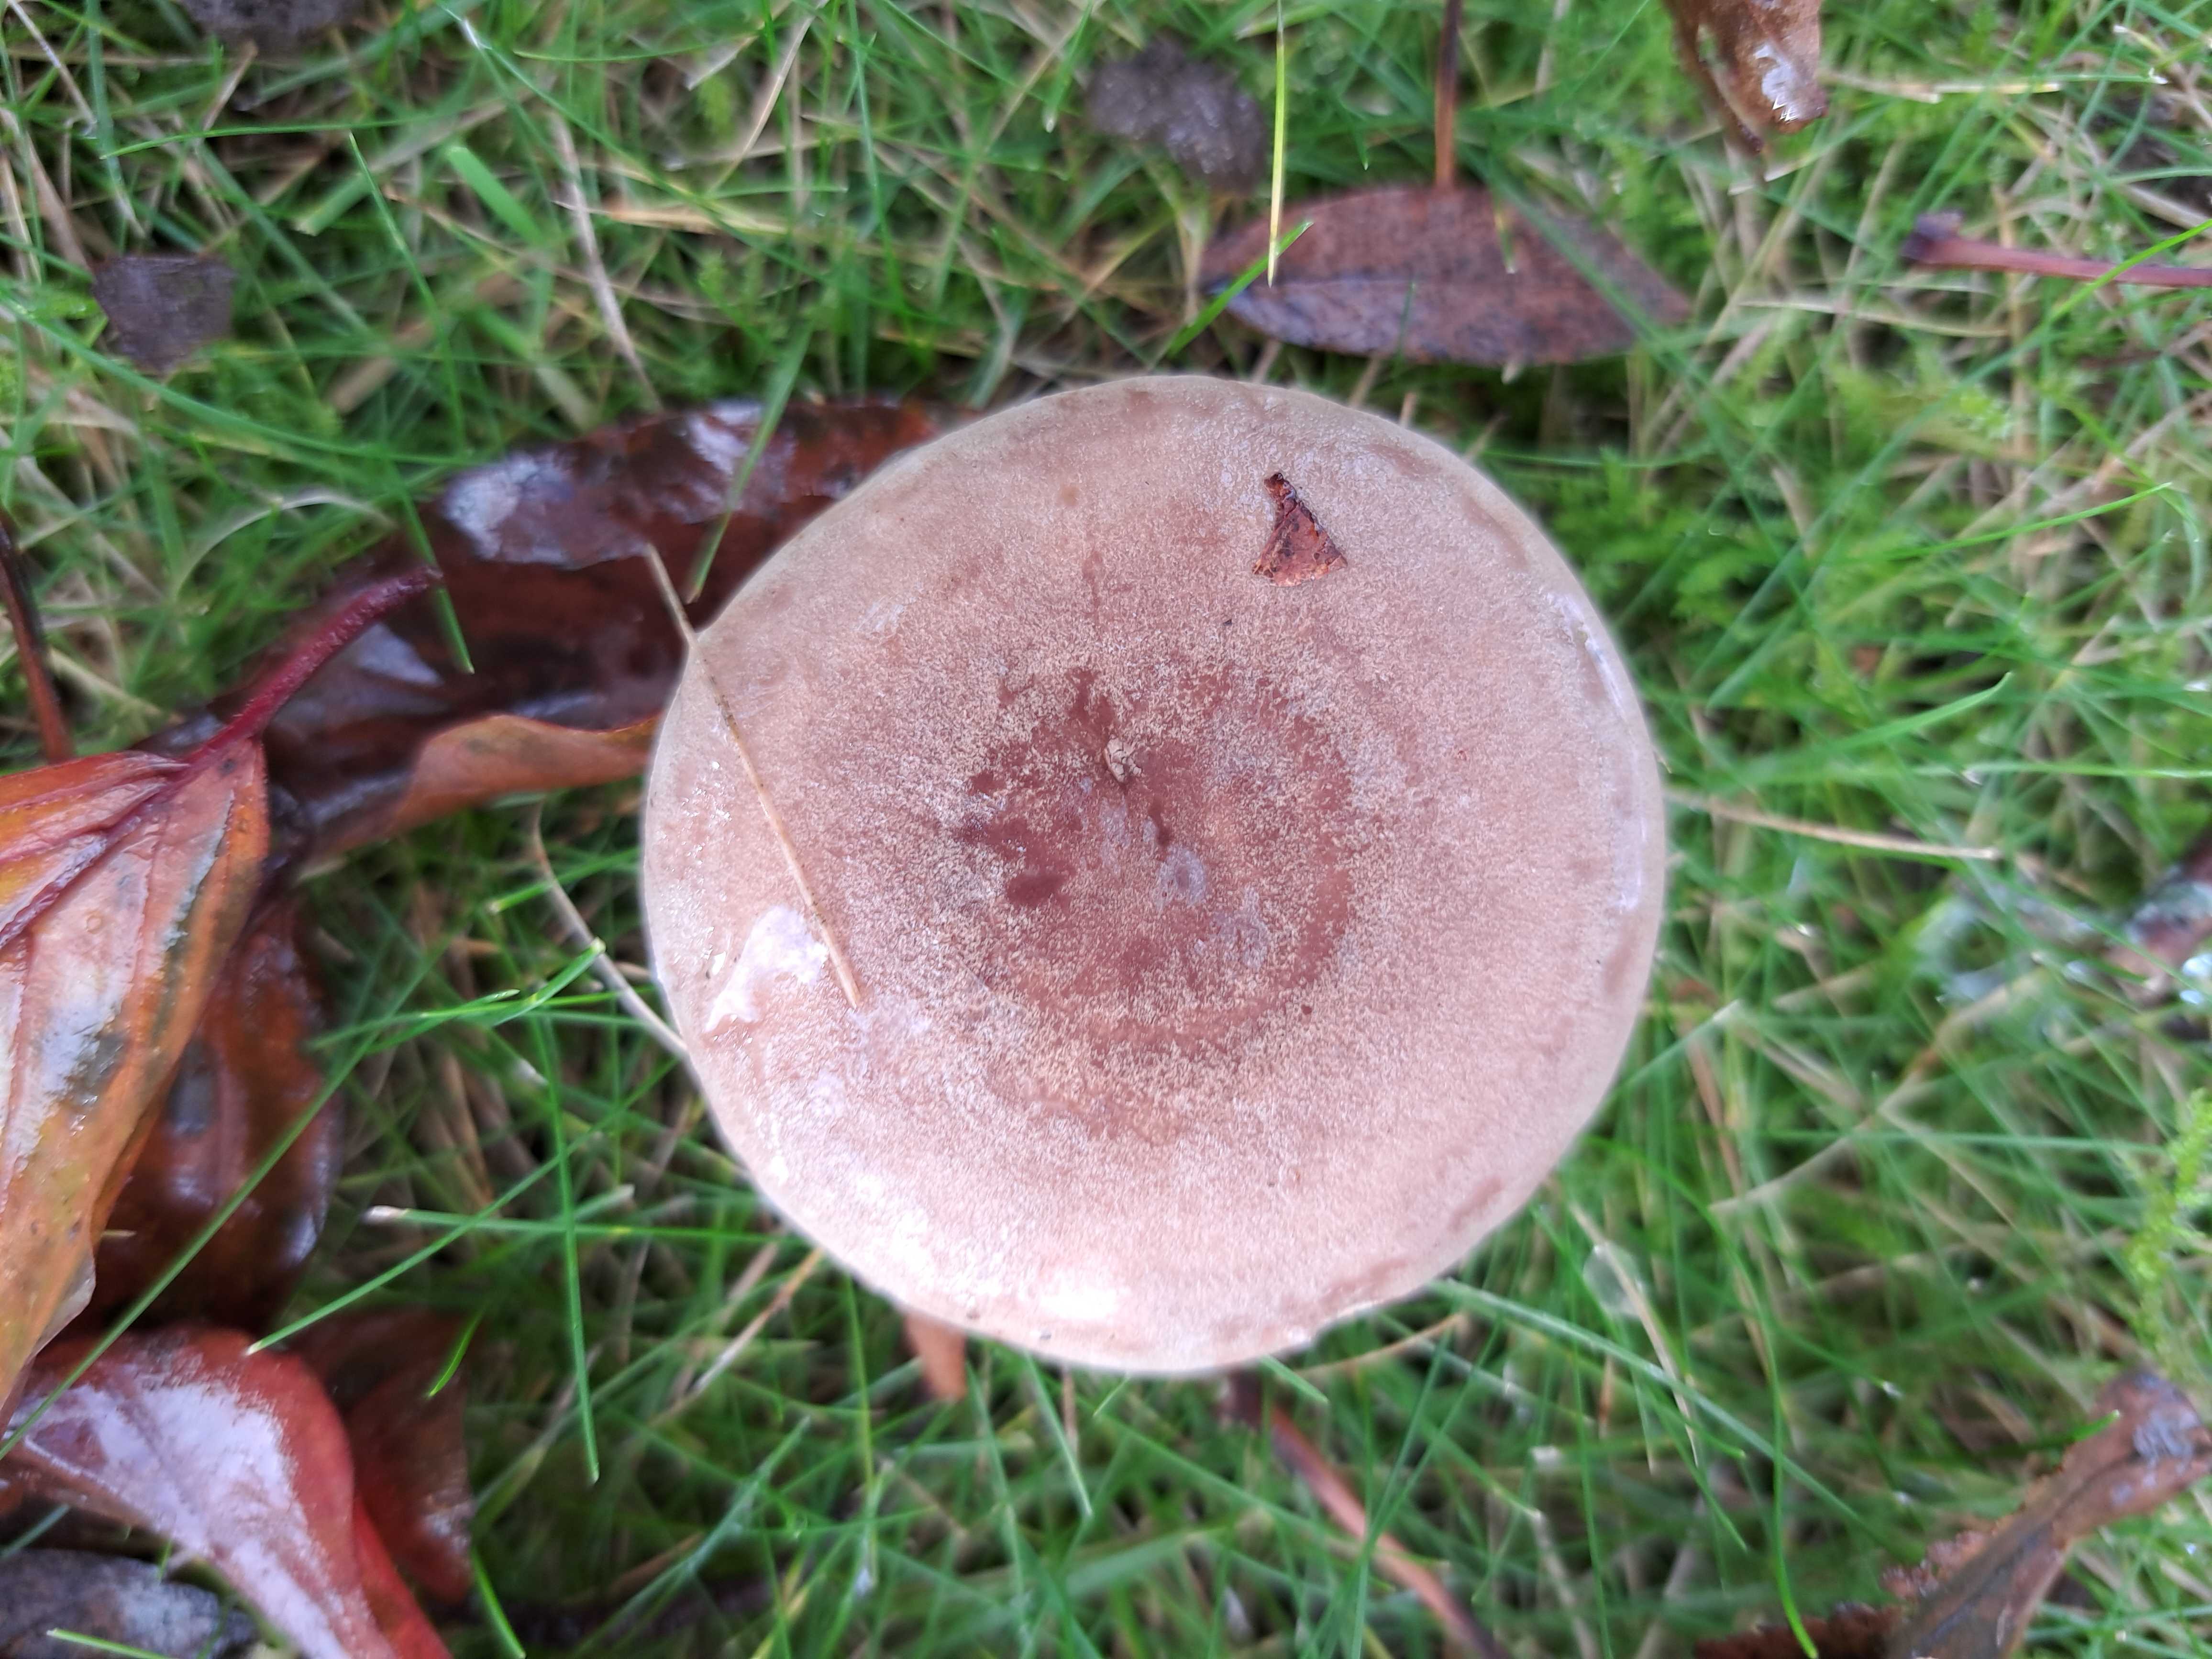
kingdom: Fungi
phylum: Basidiomycota
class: Agaricomycetes
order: Russulales
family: Russulaceae
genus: Lactarius
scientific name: Lactarius
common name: mælkehat
